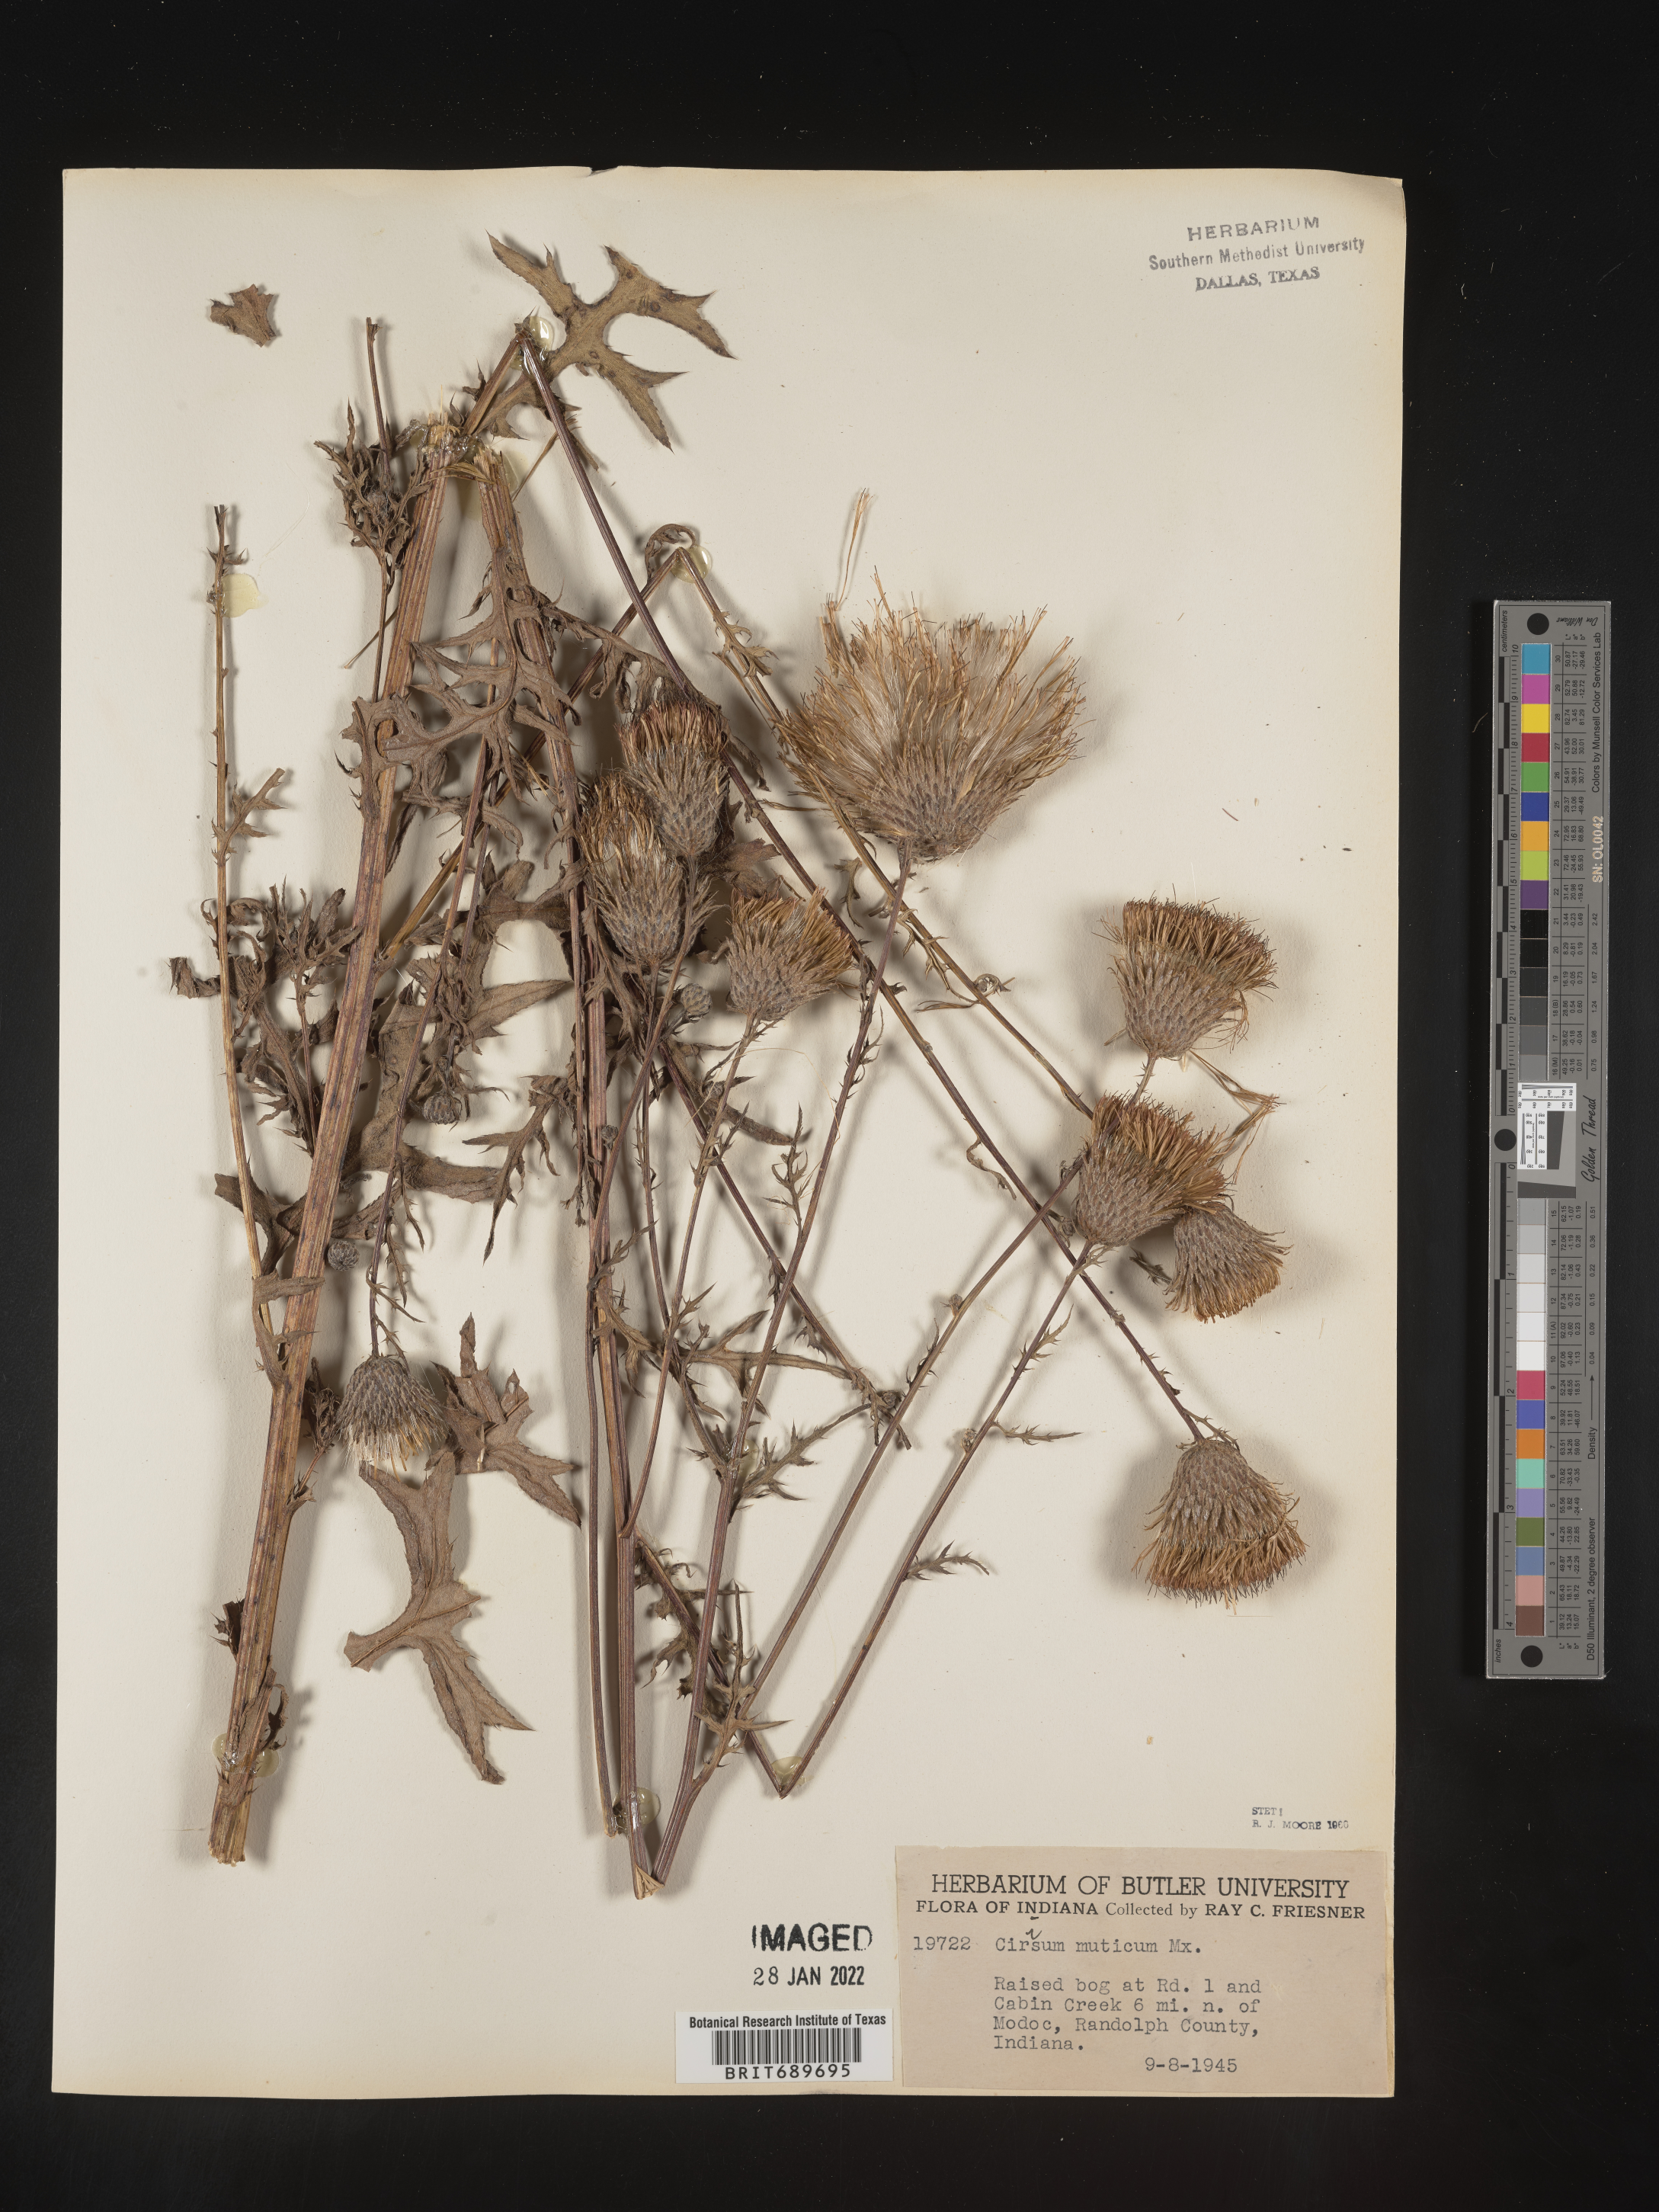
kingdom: Plantae
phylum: Tracheophyta
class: Magnoliopsida
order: Asterales
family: Asteraceae
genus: Cirsium
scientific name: Cirsium muticum
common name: Dunce-nettle
